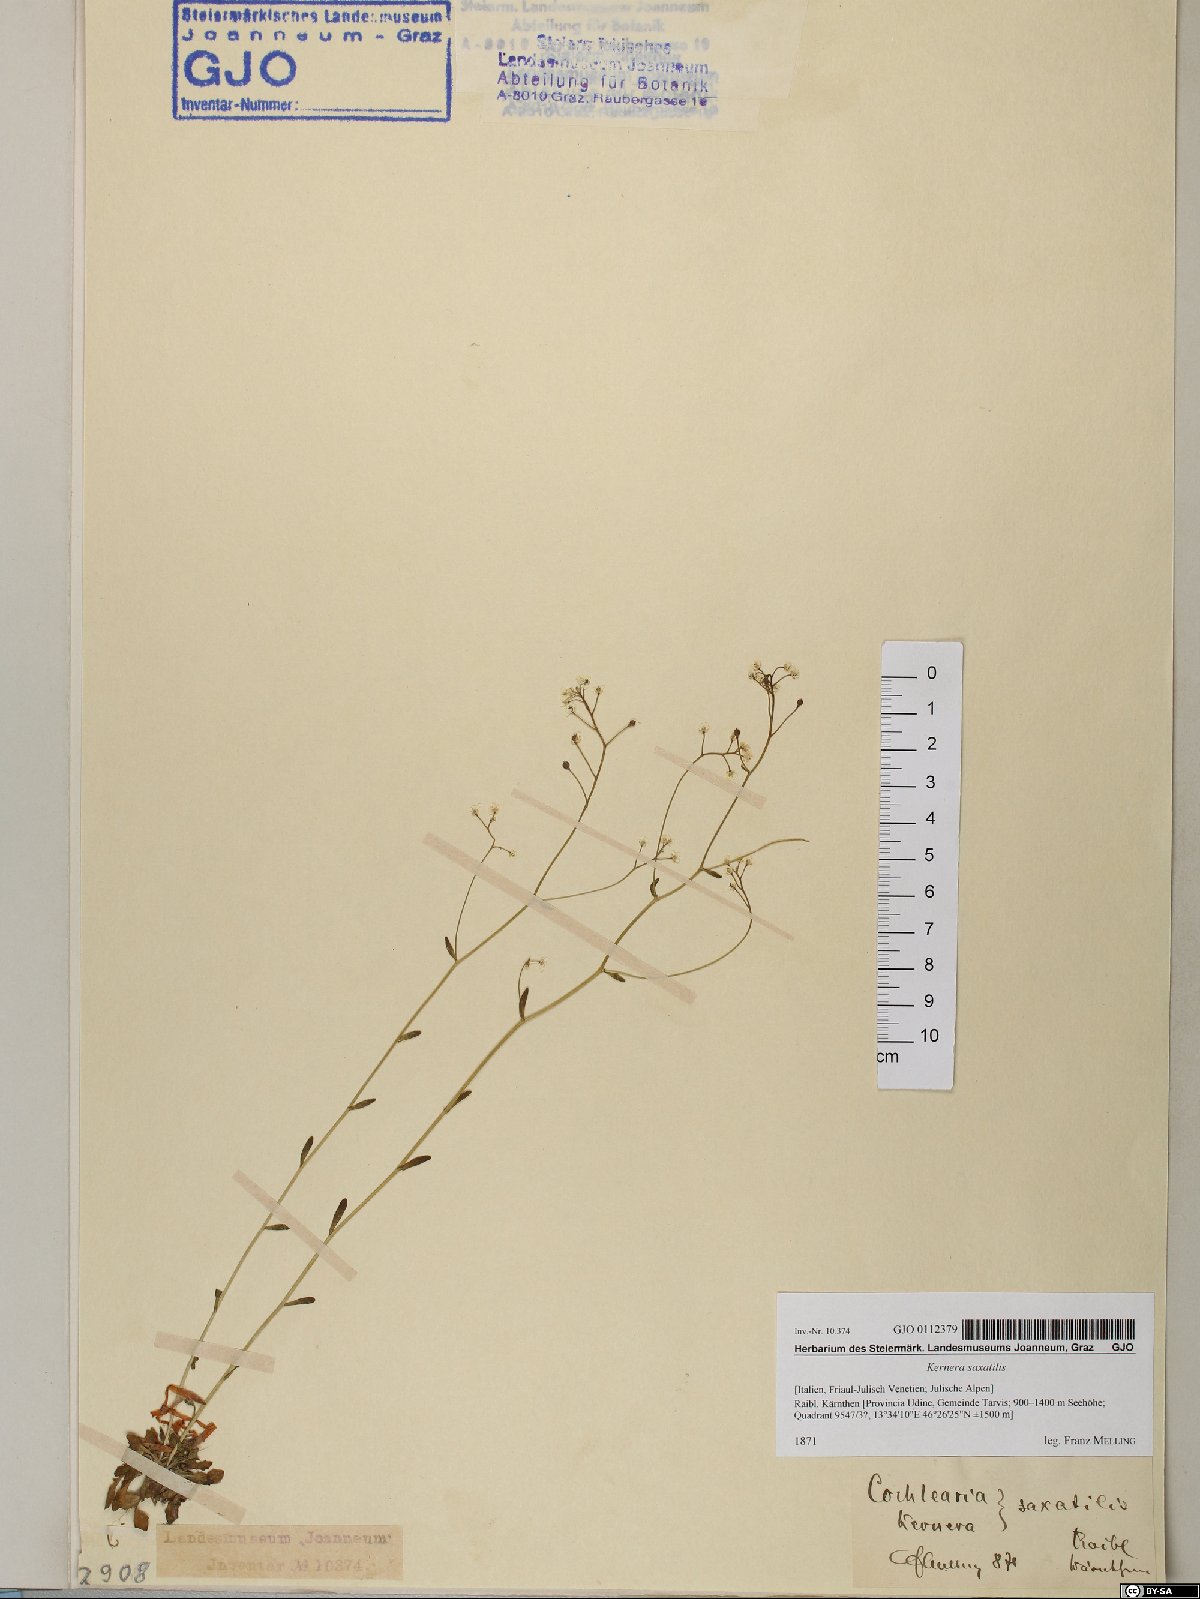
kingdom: Plantae
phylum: Tracheophyta
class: Magnoliopsida
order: Brassicales
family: Brassicaceae
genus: Kernera
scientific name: Kernera saxatilis
